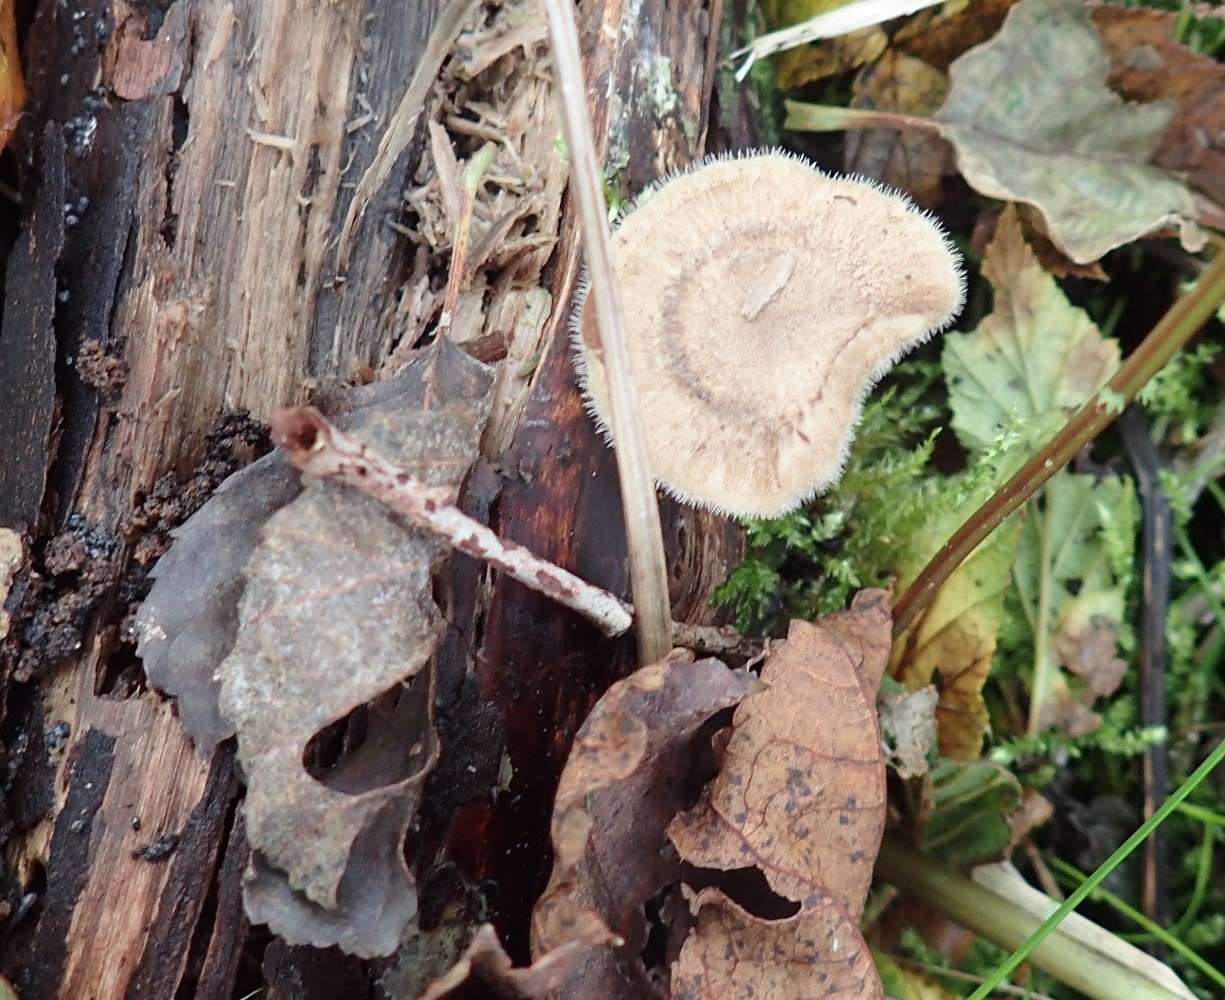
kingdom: Fungi
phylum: Basidiomycota
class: Agaricomycetes
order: Polyporales
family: Polyporaceae
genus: Lentinus
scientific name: Lentinus brumalis
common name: vinter-stilkporesvamp
